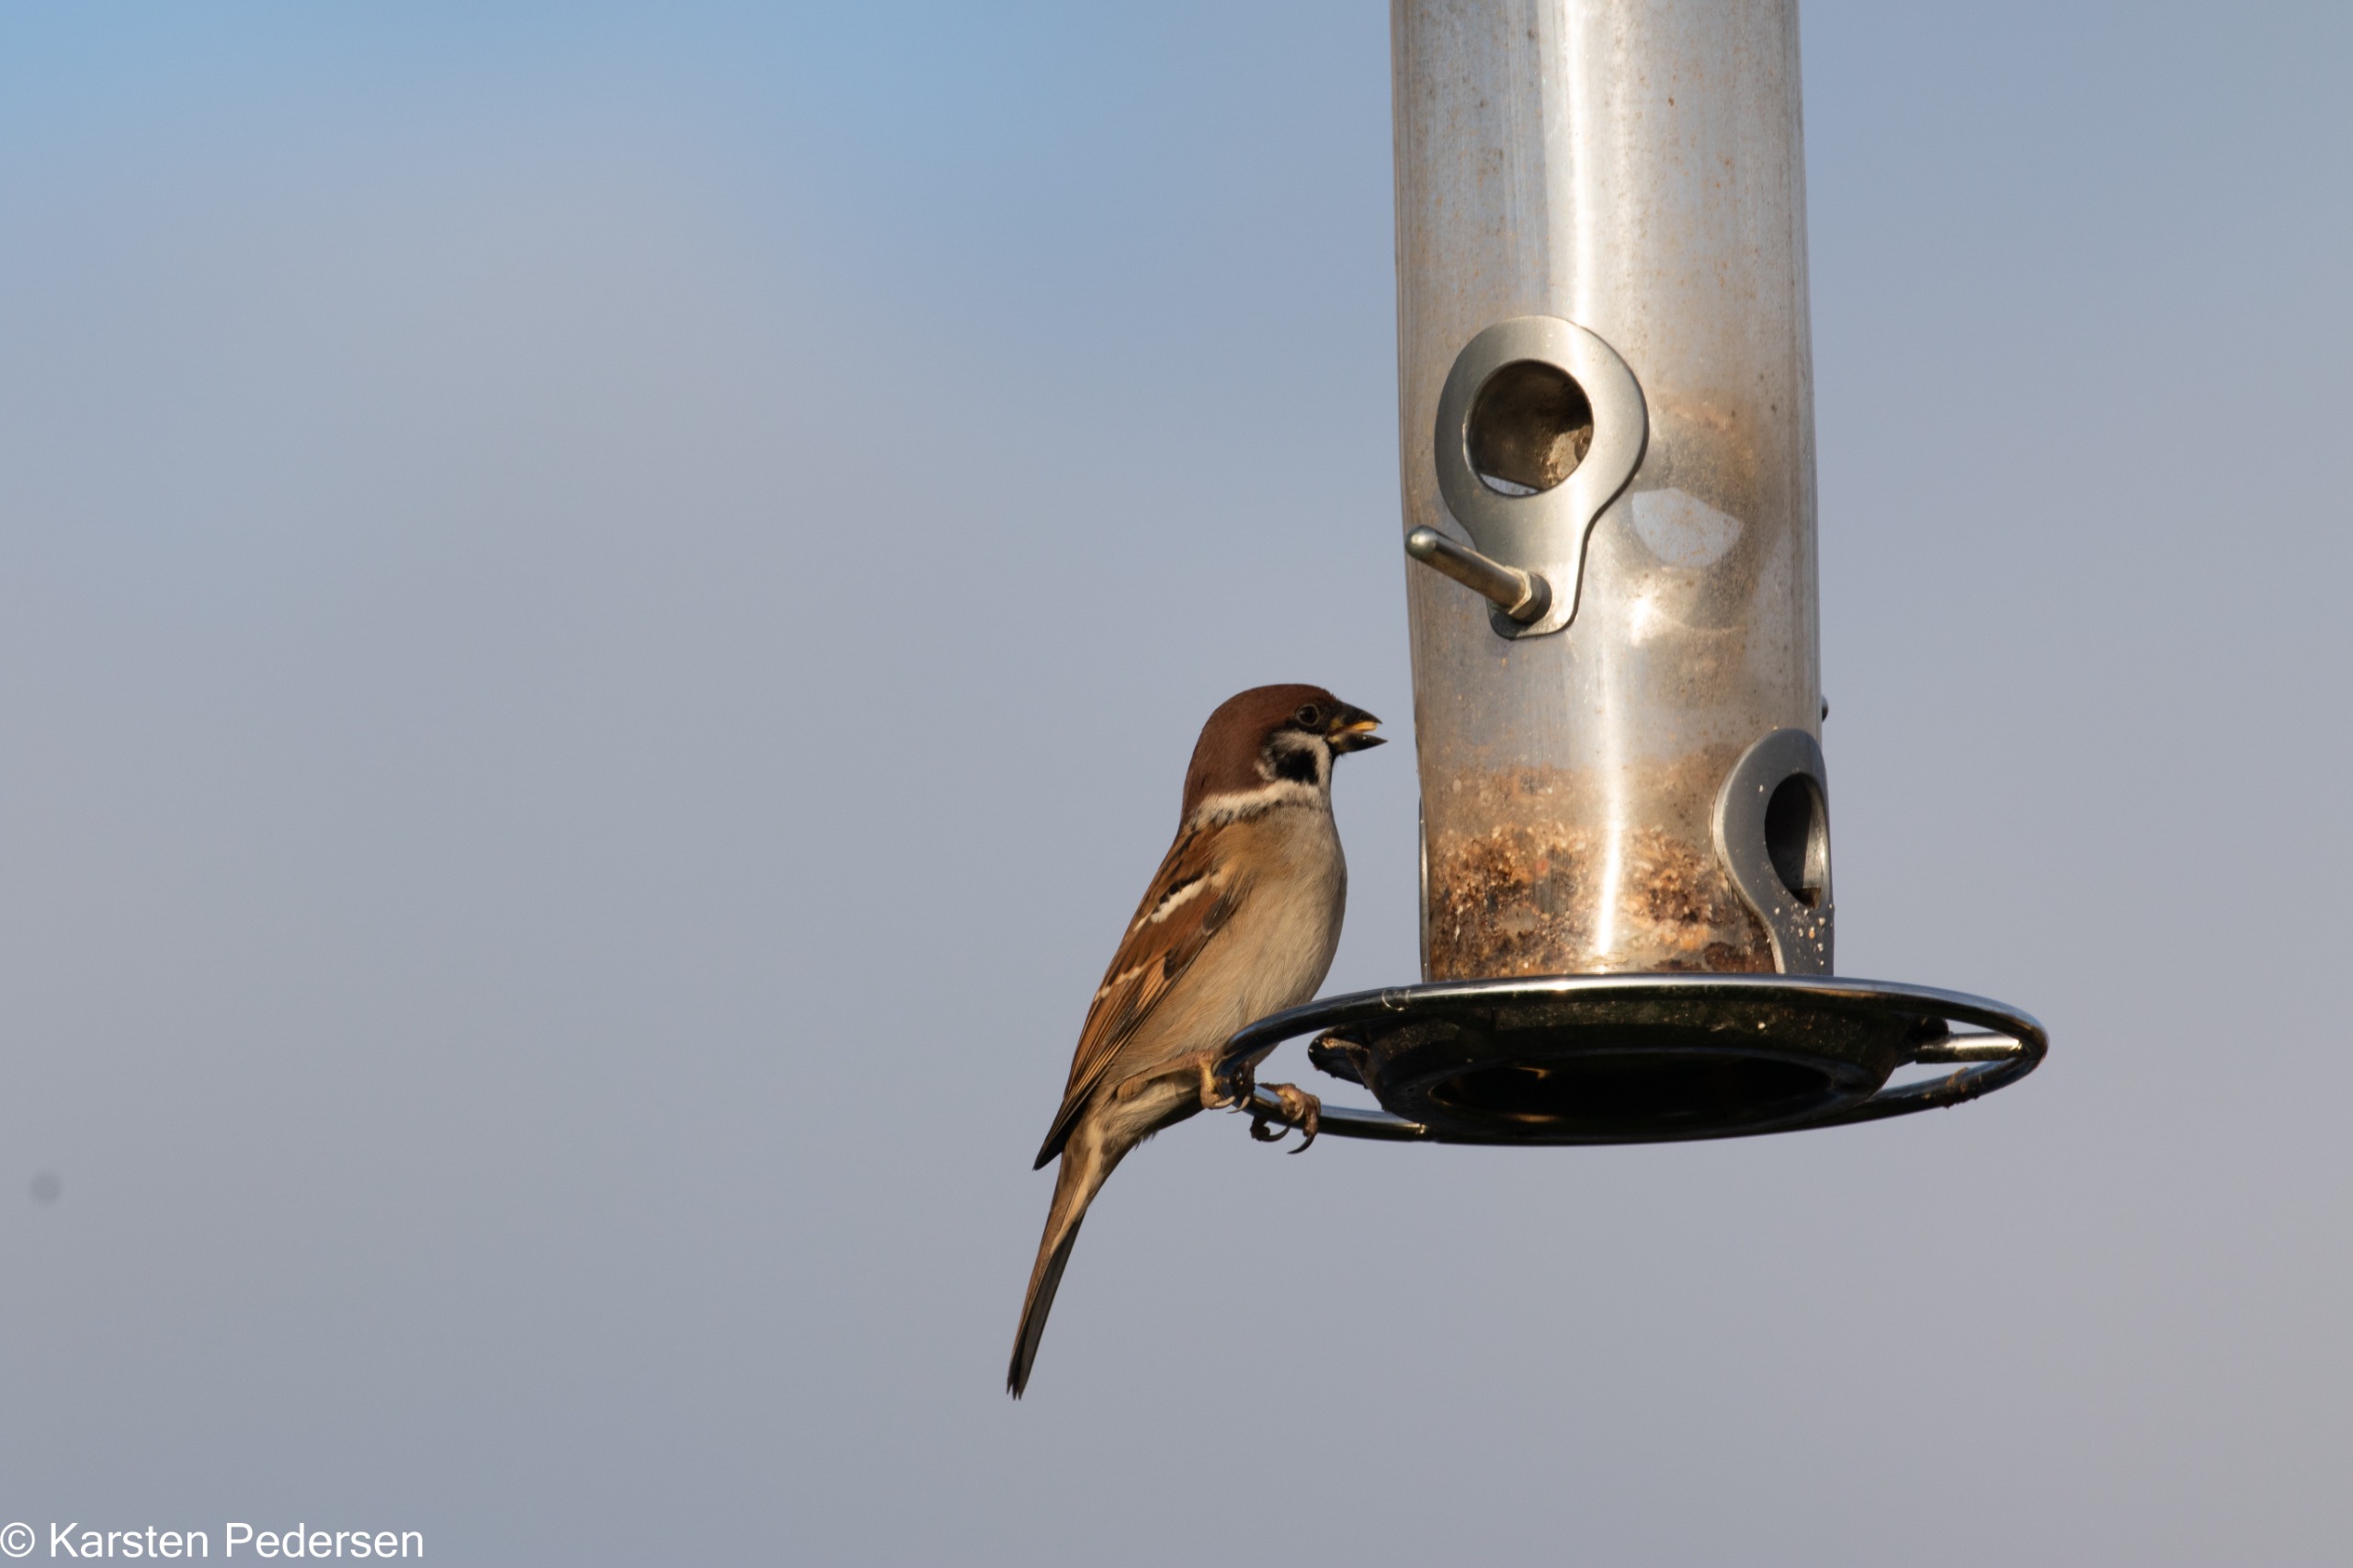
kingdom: Animalia
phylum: Chordata
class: Aves
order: Passeriformes
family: Passeridae
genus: Passer
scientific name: Passer montanus
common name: Skovspurv
